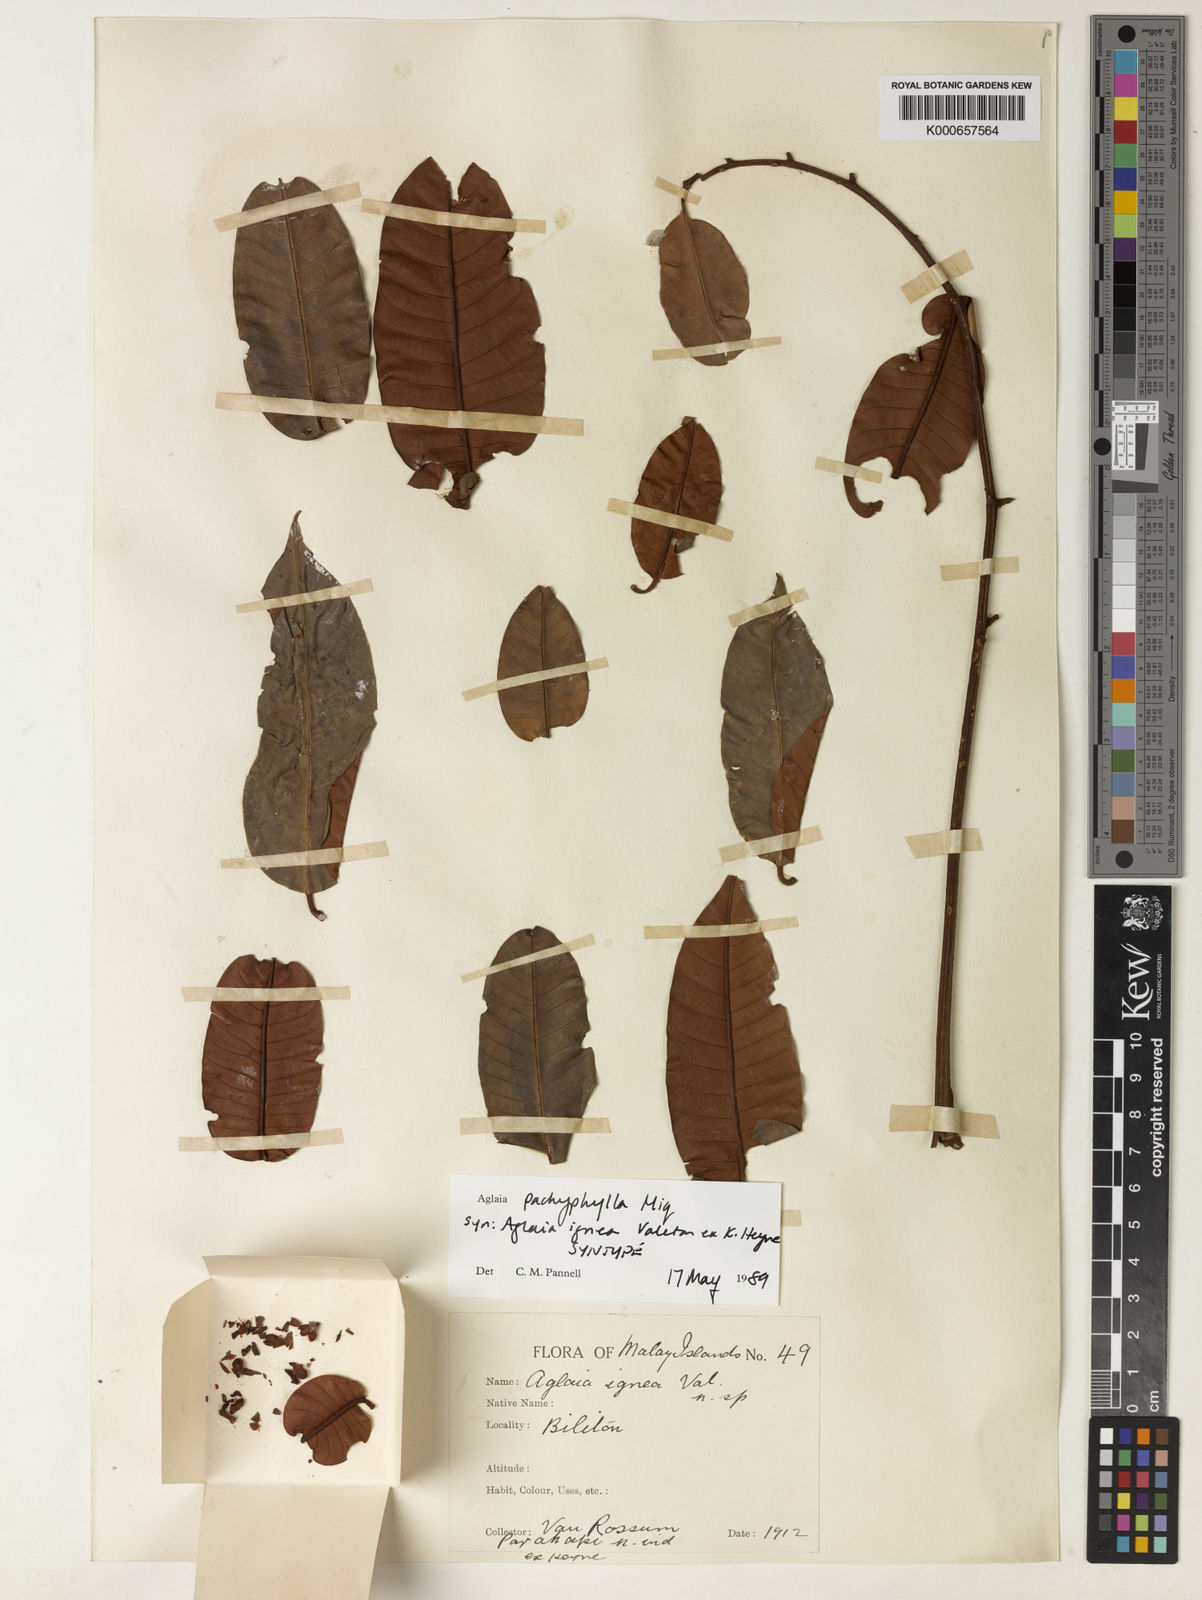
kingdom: Plantae
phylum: Tracheophyta
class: Magnoliopsida
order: Sapindales
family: Meliaceae
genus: Aglaia
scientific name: Aglaia rubiginosa
